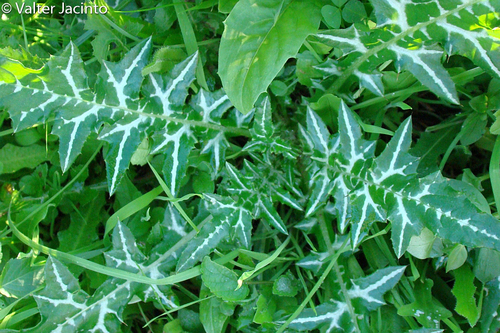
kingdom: Plantae
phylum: Tracheophyta
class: Magnoliopsida
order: Asterales
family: Asteraceae
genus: Galactites
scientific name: Galactites tomentosa
